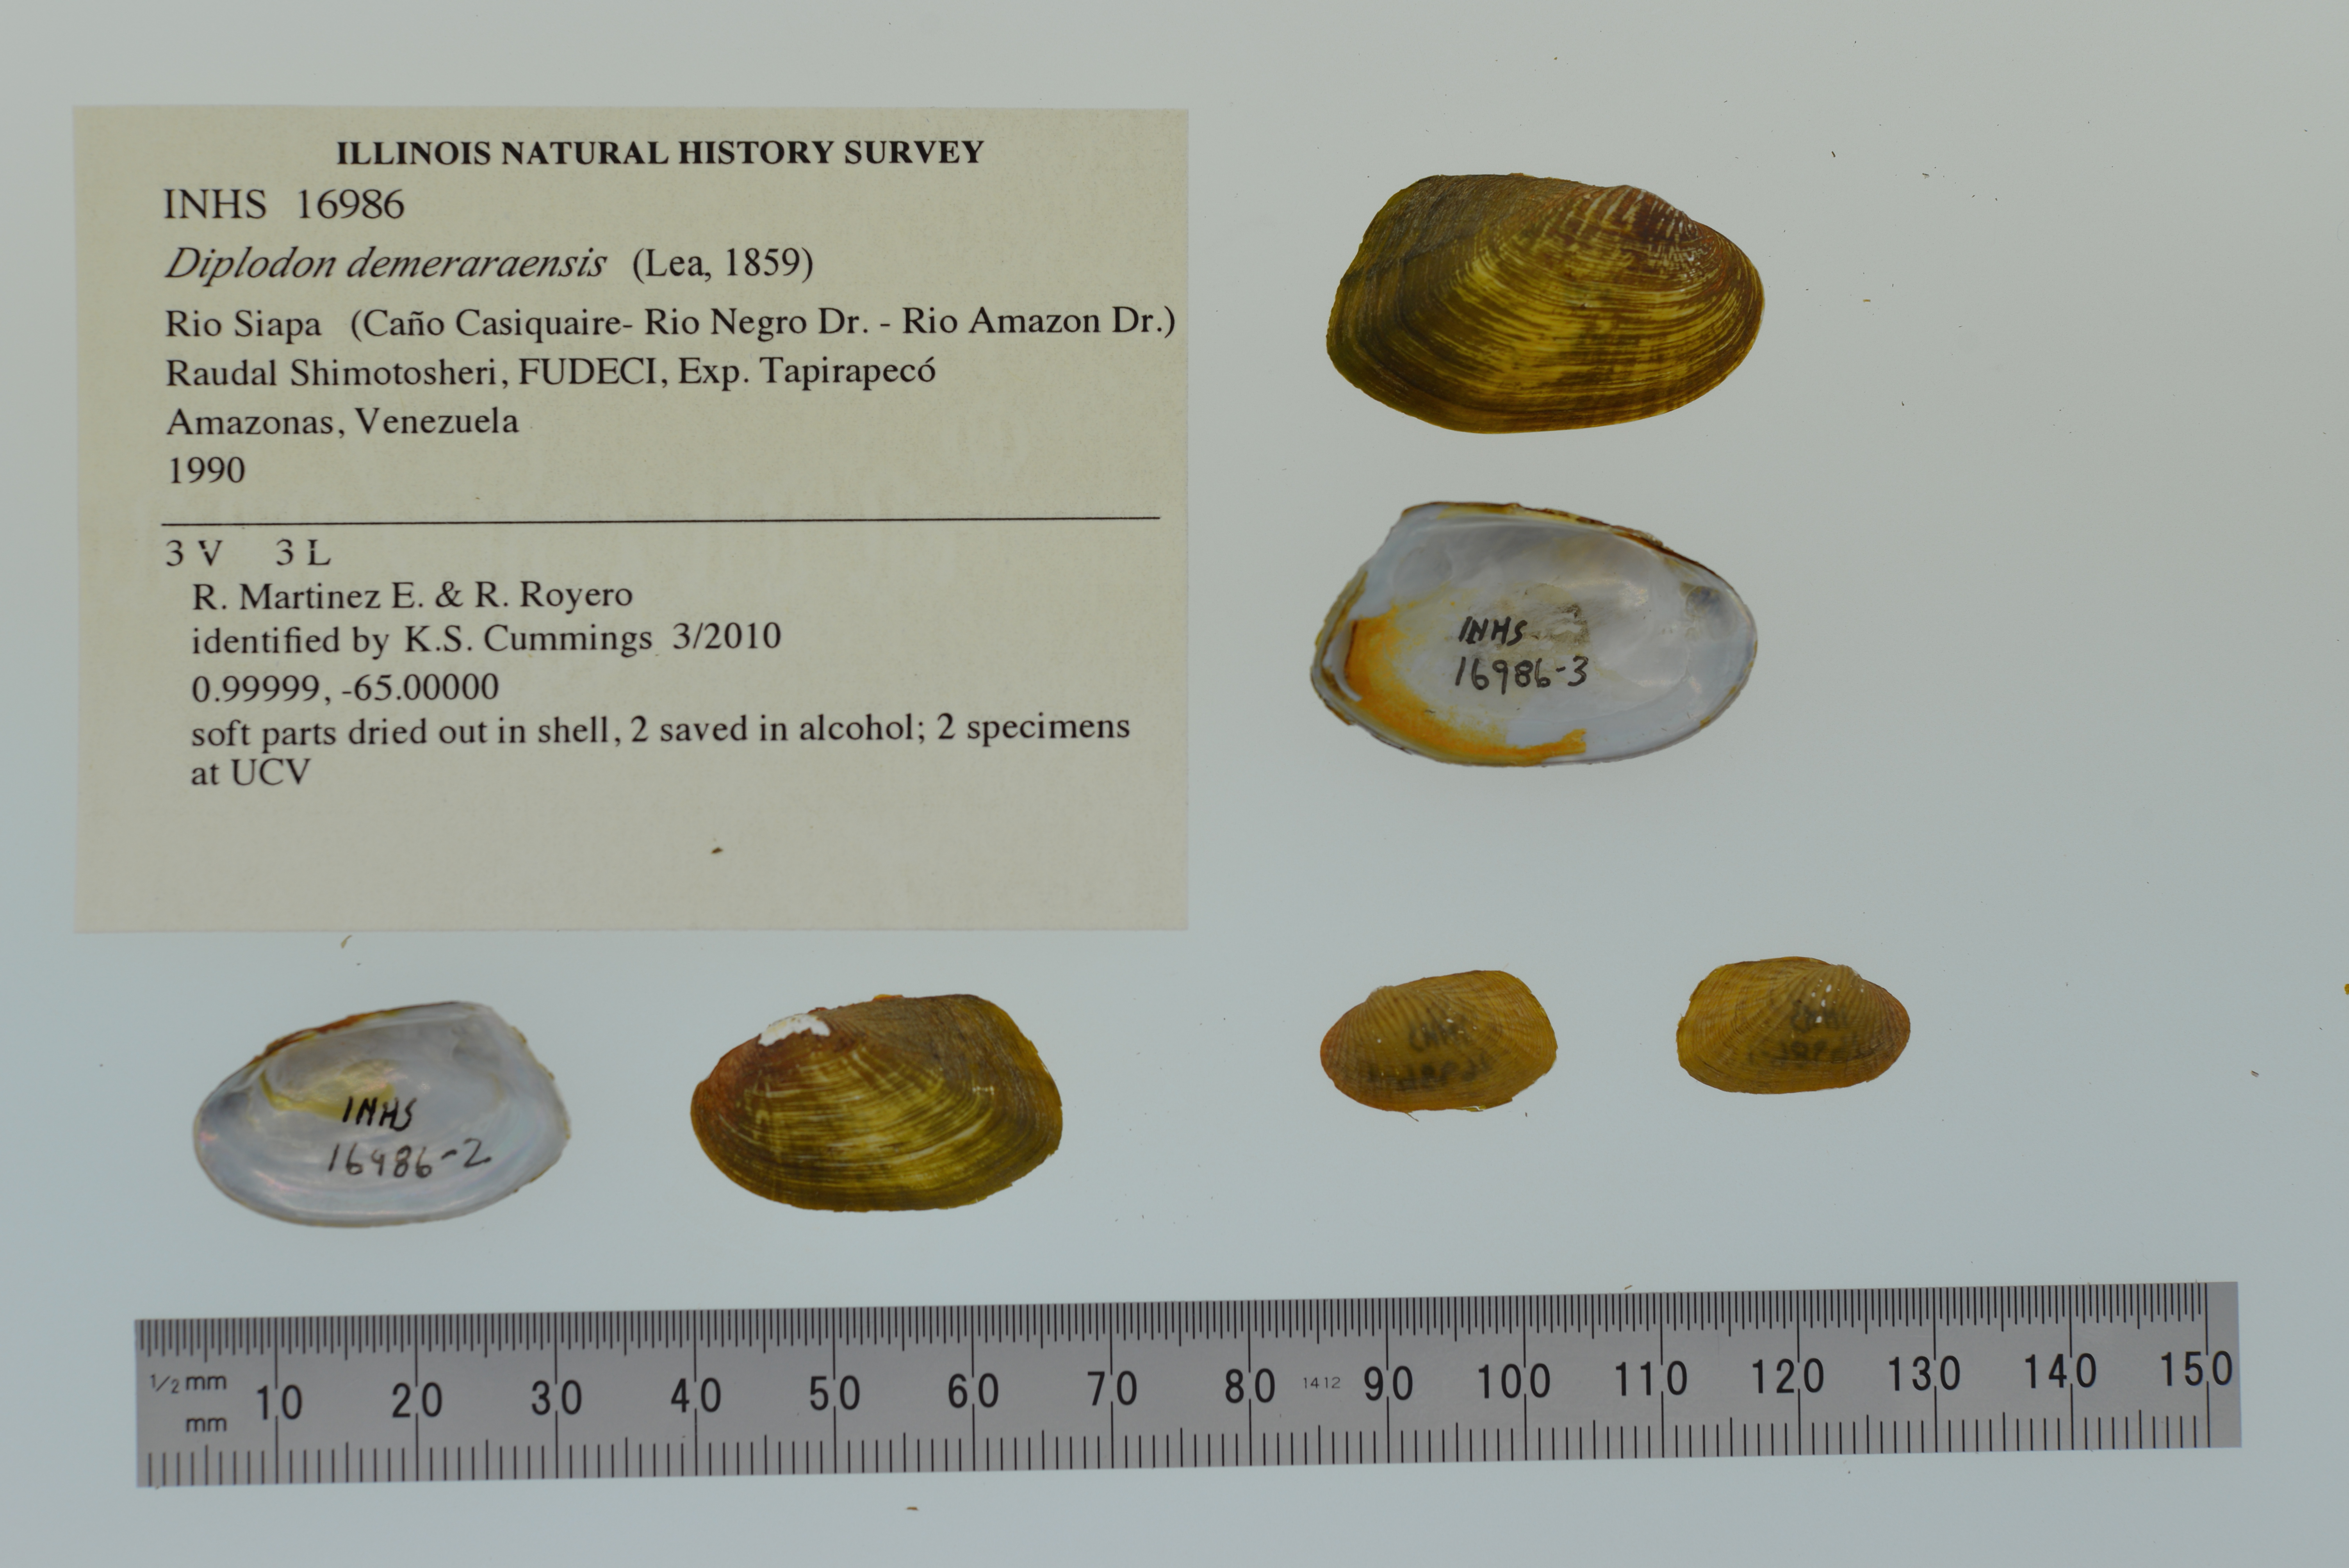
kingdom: Animalia
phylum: Mollusca
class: Bivalvia
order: Unionida
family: Hyriidae
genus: Diplodon
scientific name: Diplodon demeraraensis
